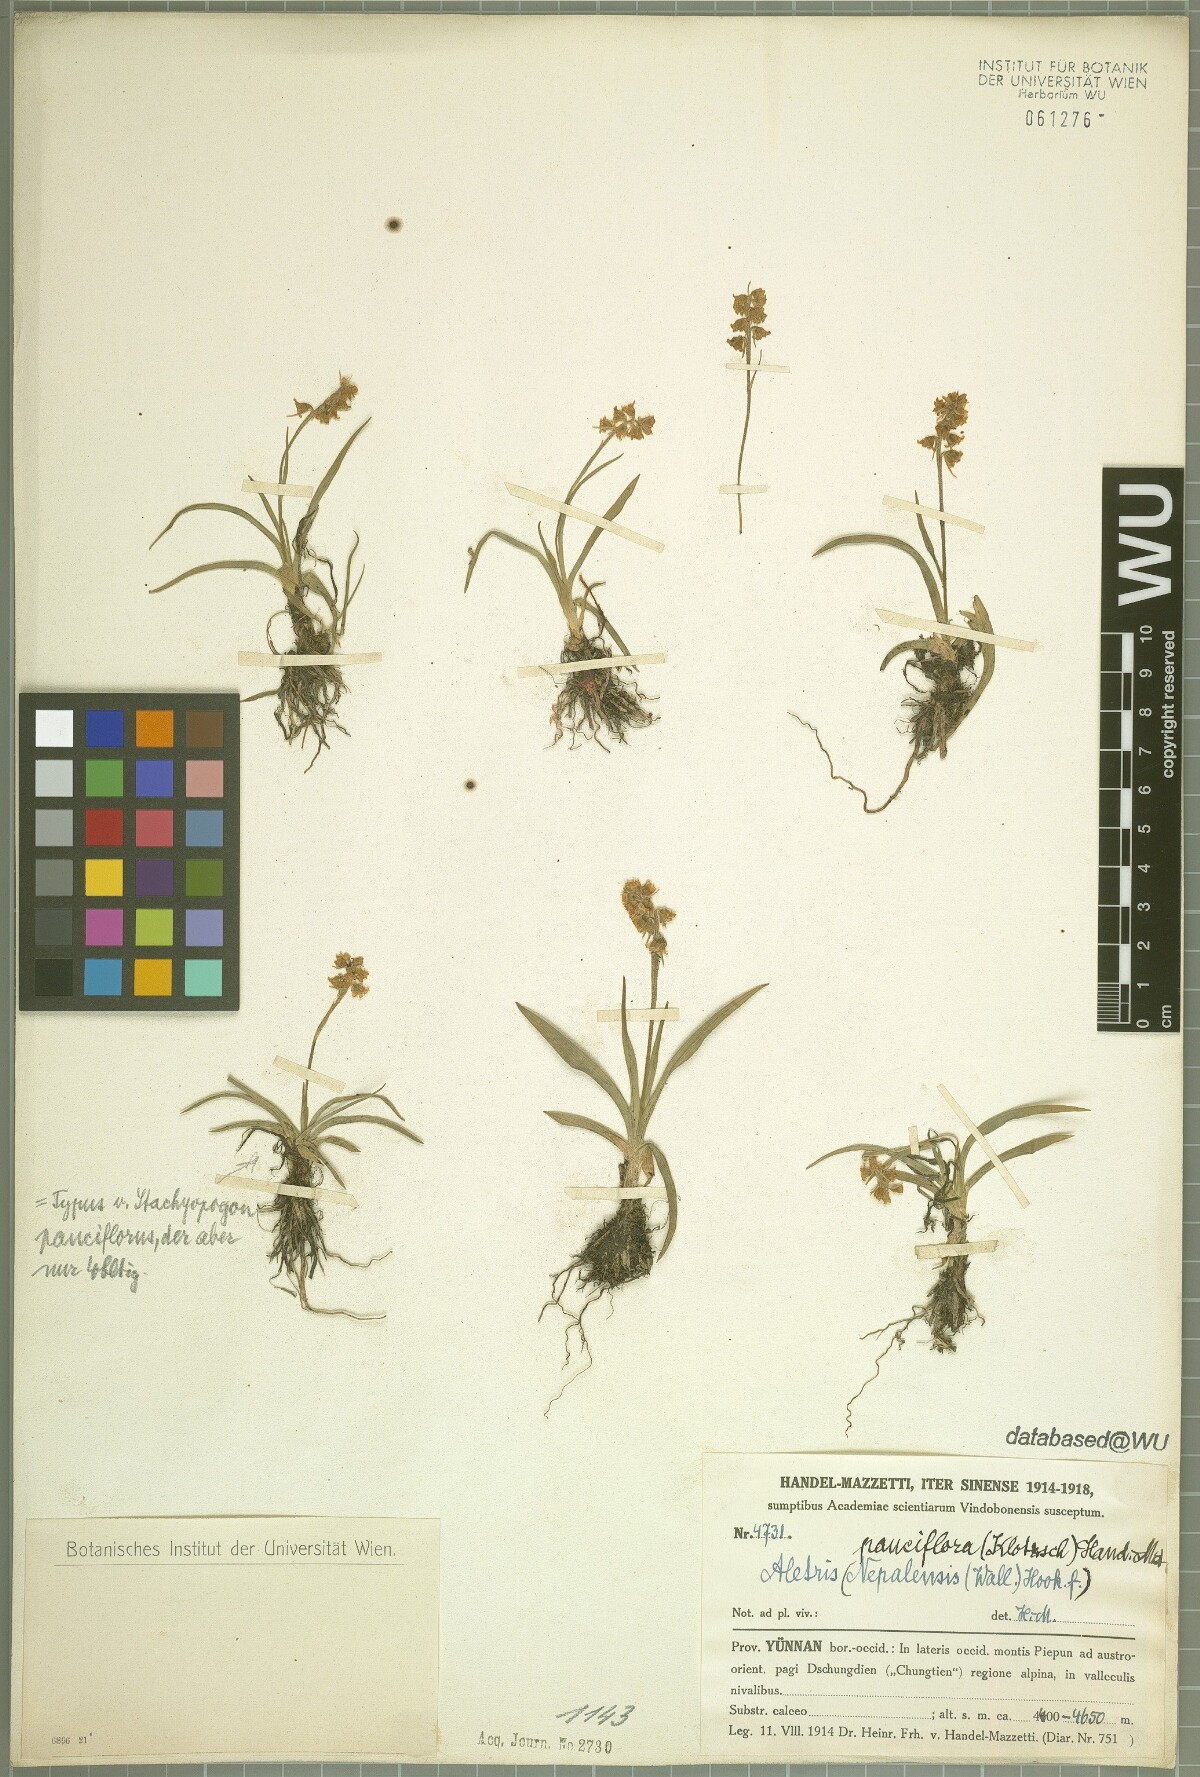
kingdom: Plantae
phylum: Tracheophyta
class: Liliopsida
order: Dioscoreales
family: Nartheciaceae
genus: Aletris
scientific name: Aletris pauciflora
